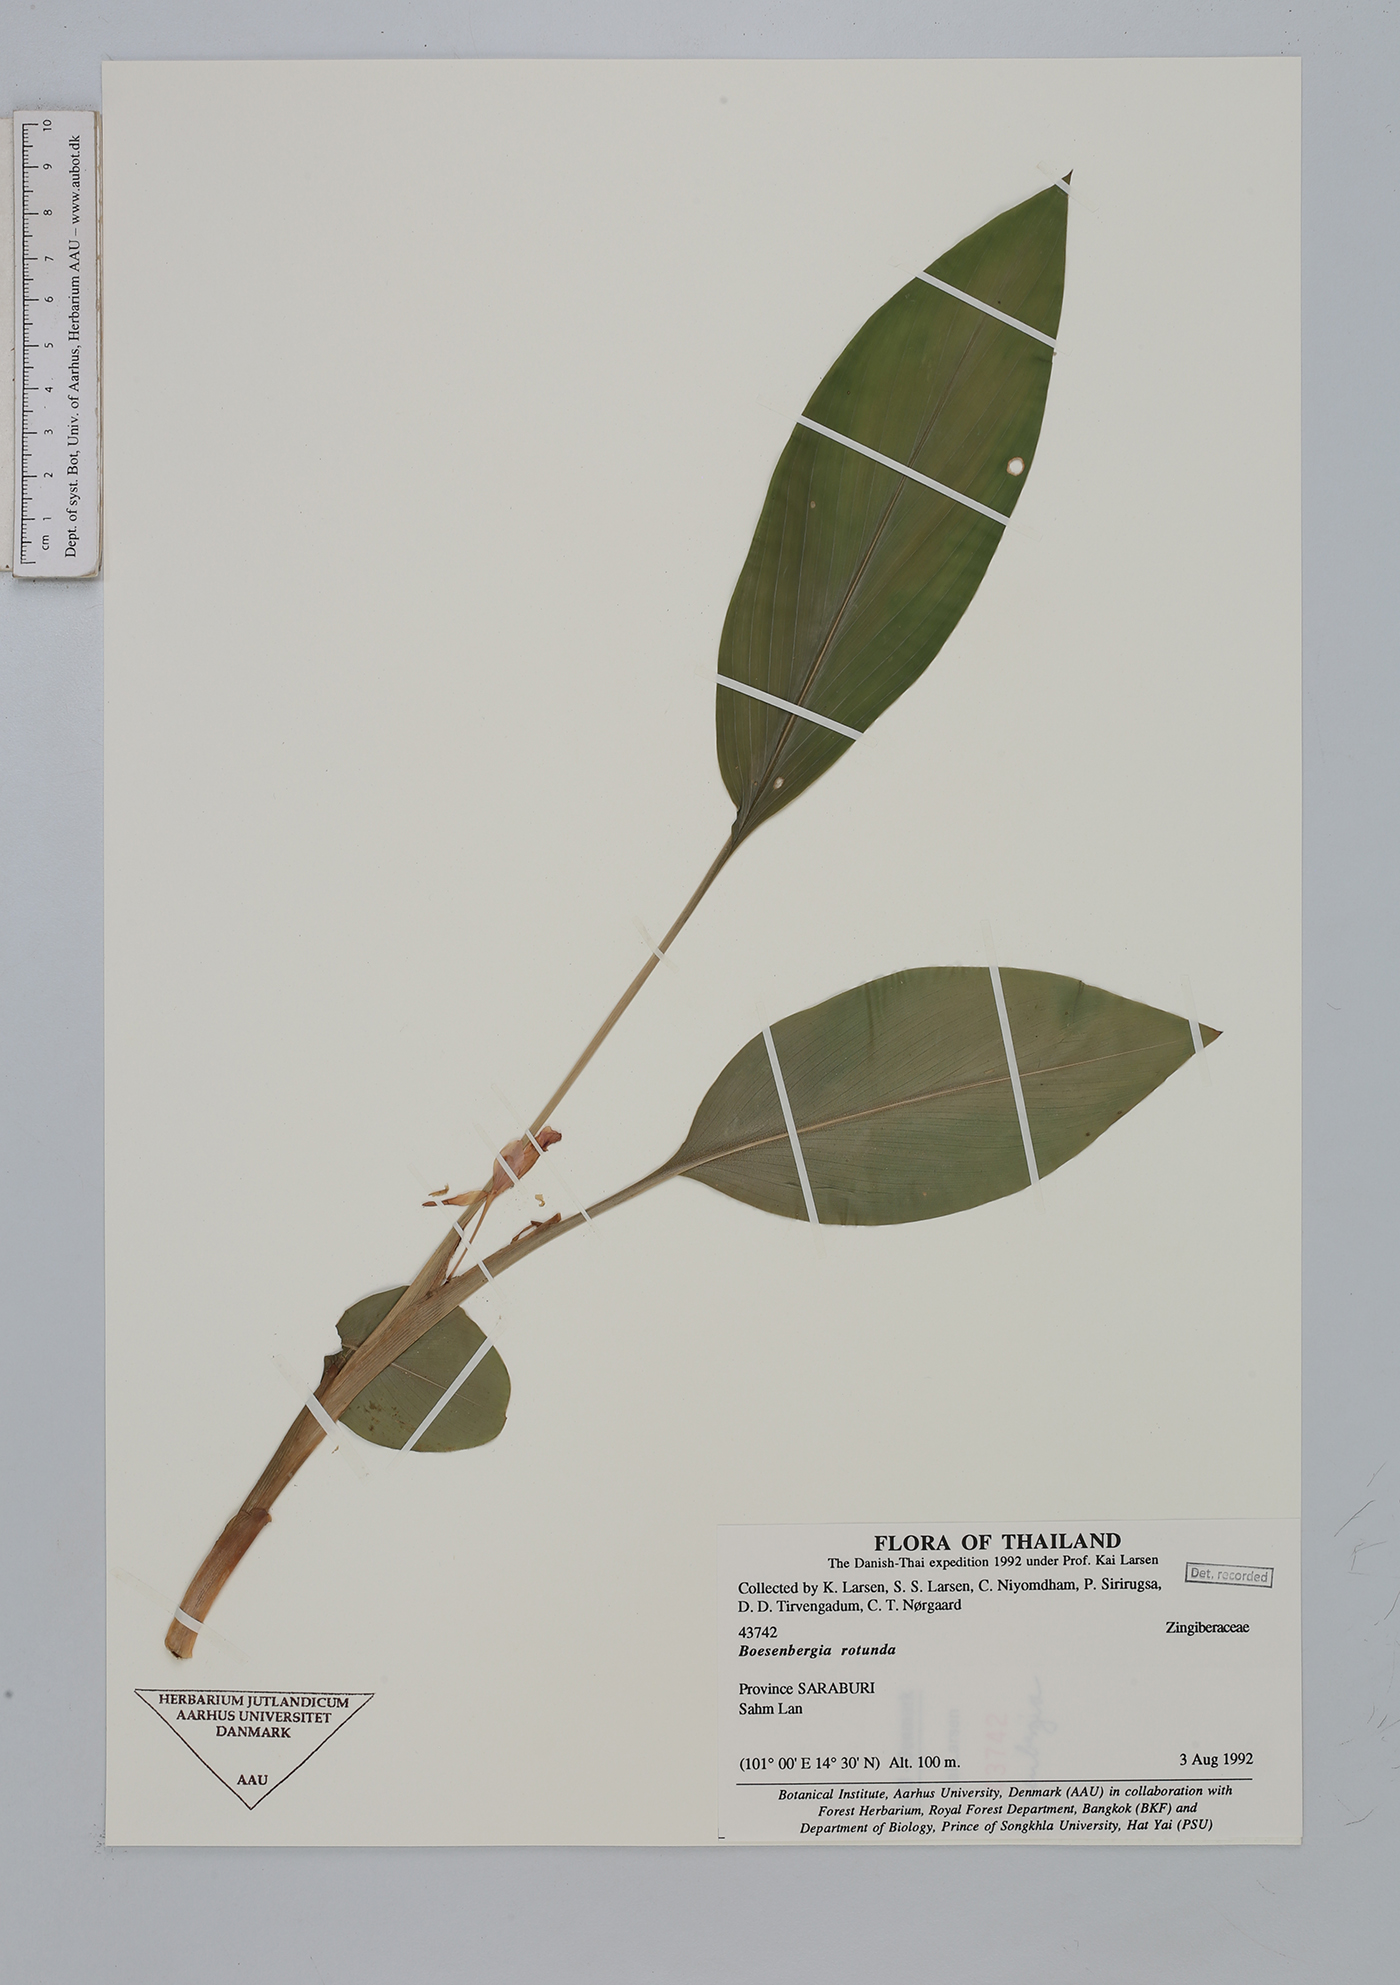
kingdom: Plantae
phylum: Tracheophyta
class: Liliopsida
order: Zingiberales
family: Zingiberaceae
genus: Boesenbergia
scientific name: Boesenbergia rotunda
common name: Chinese ginger
